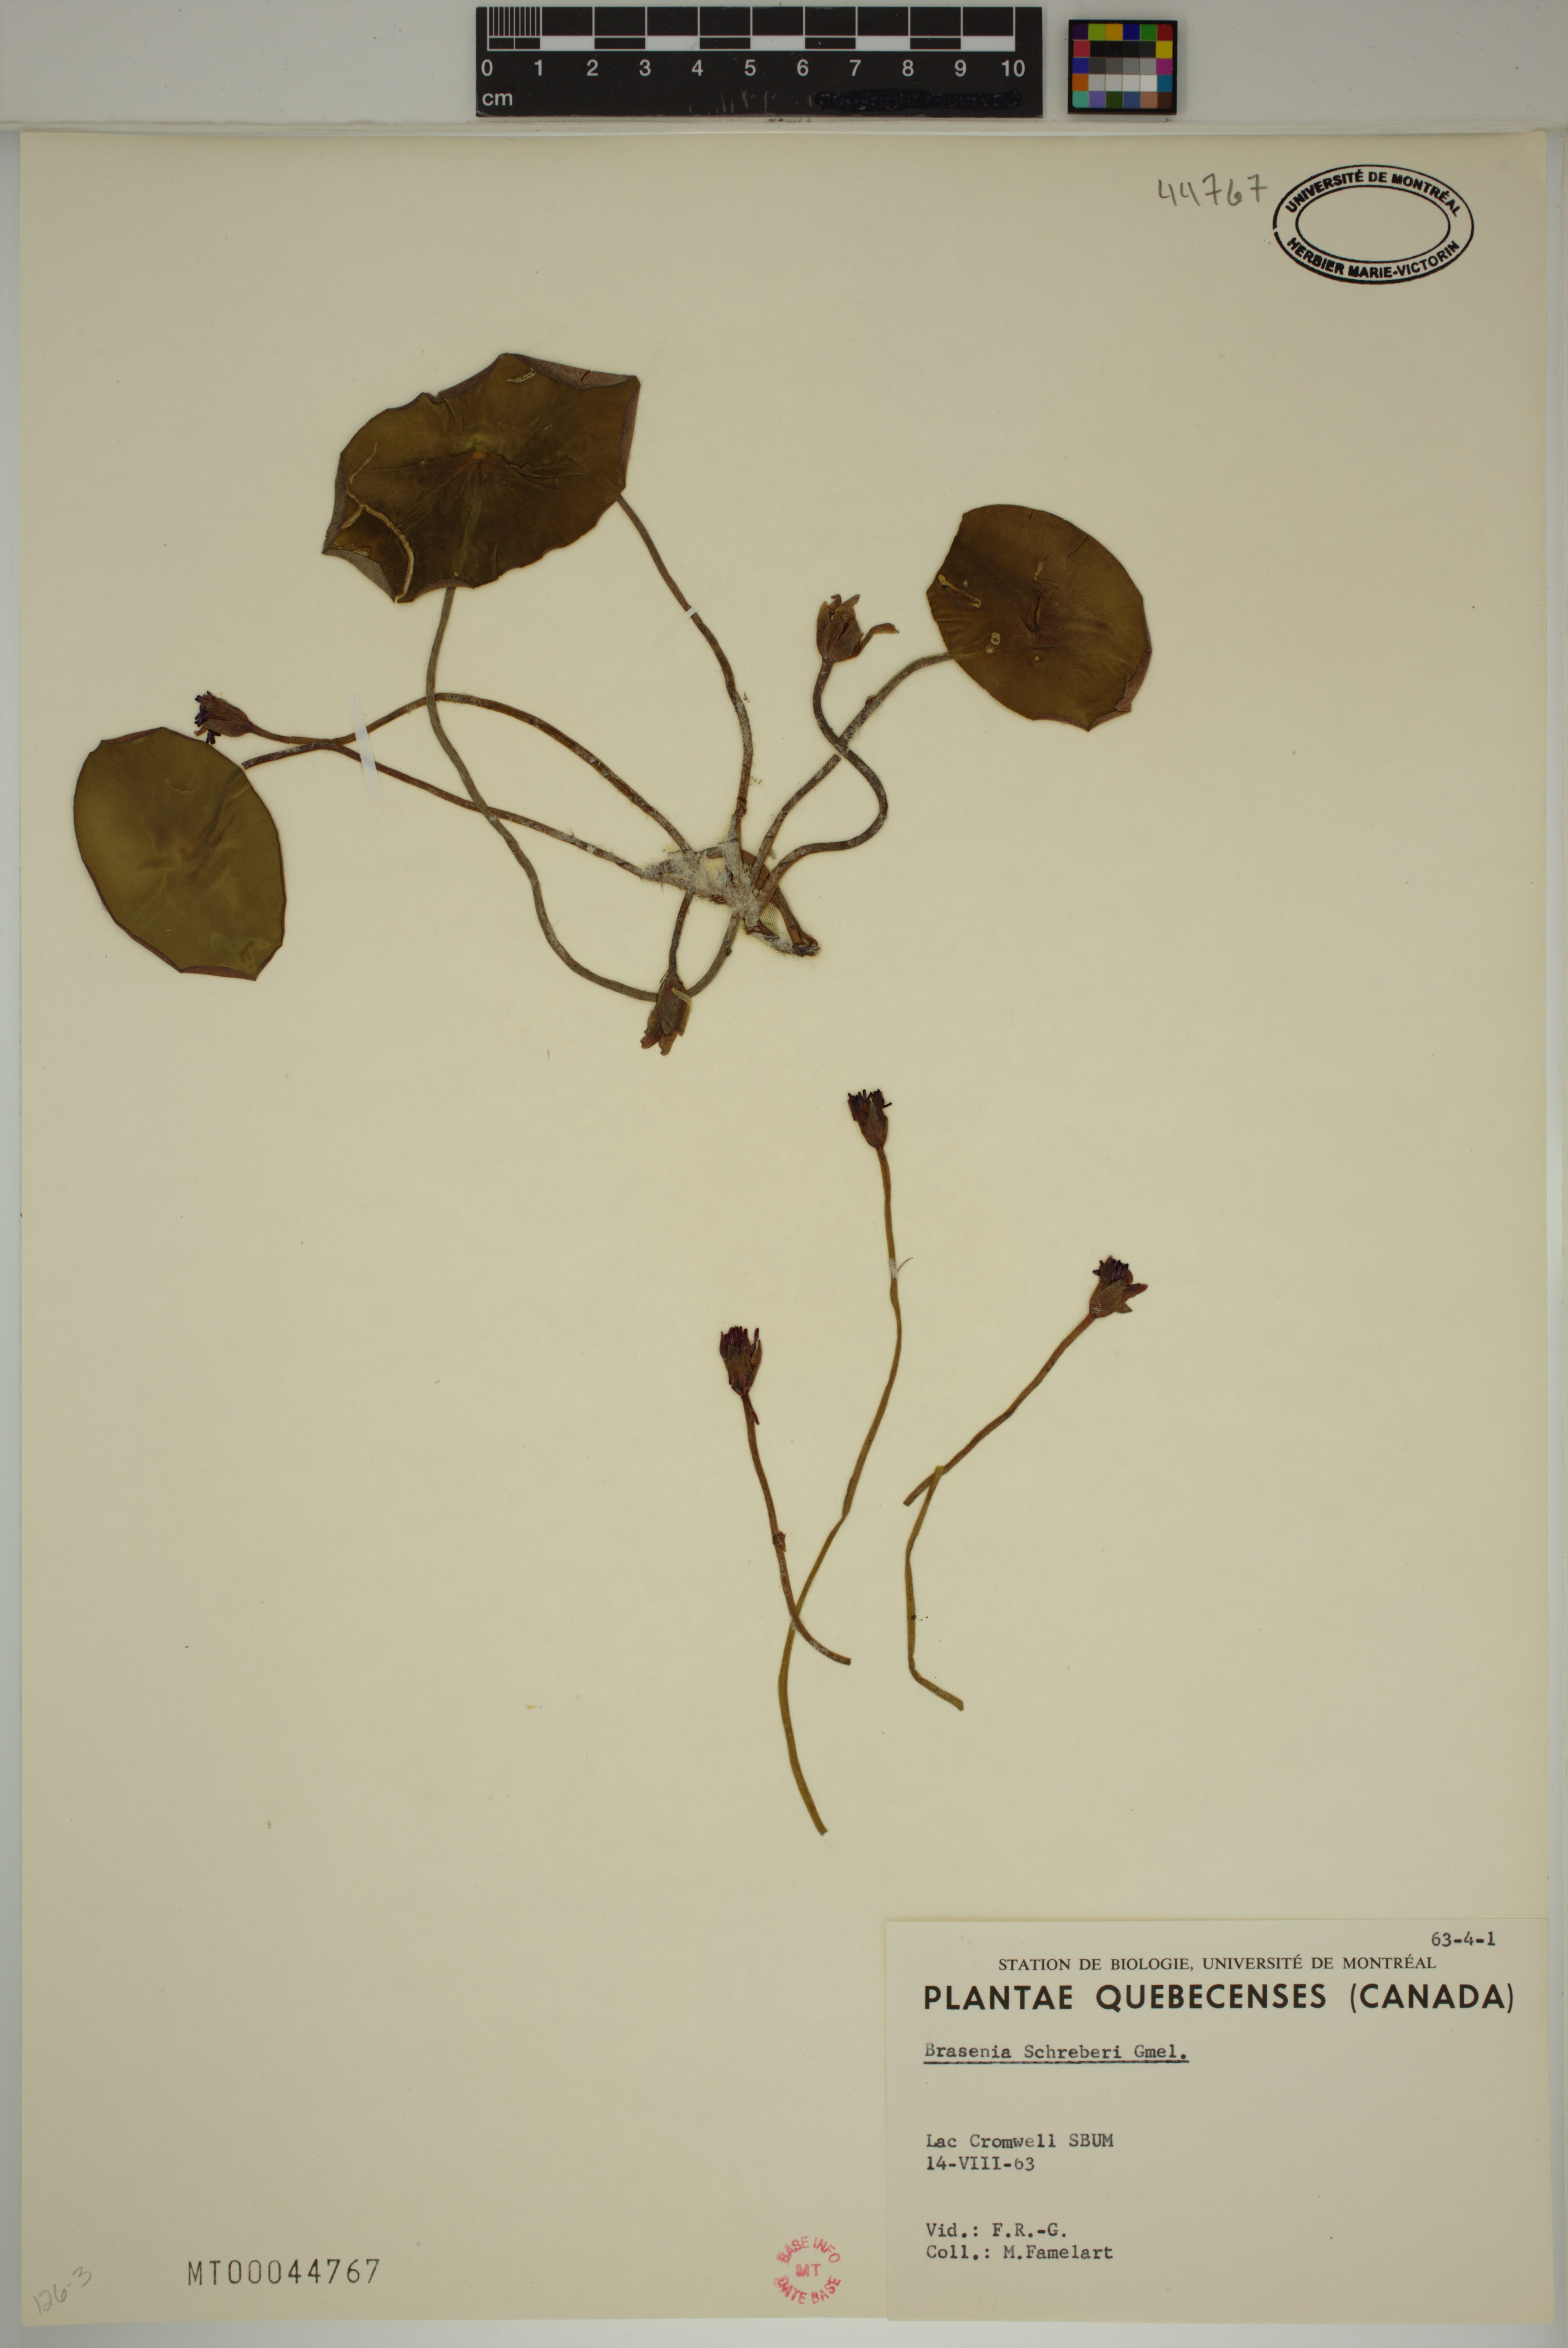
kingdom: Plantae
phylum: Tracheophyta
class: Magnoliopsida
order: Nymphaeales
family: Cabombaceae
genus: Brasenia
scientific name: Brasenia schreberi
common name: Water-shield
